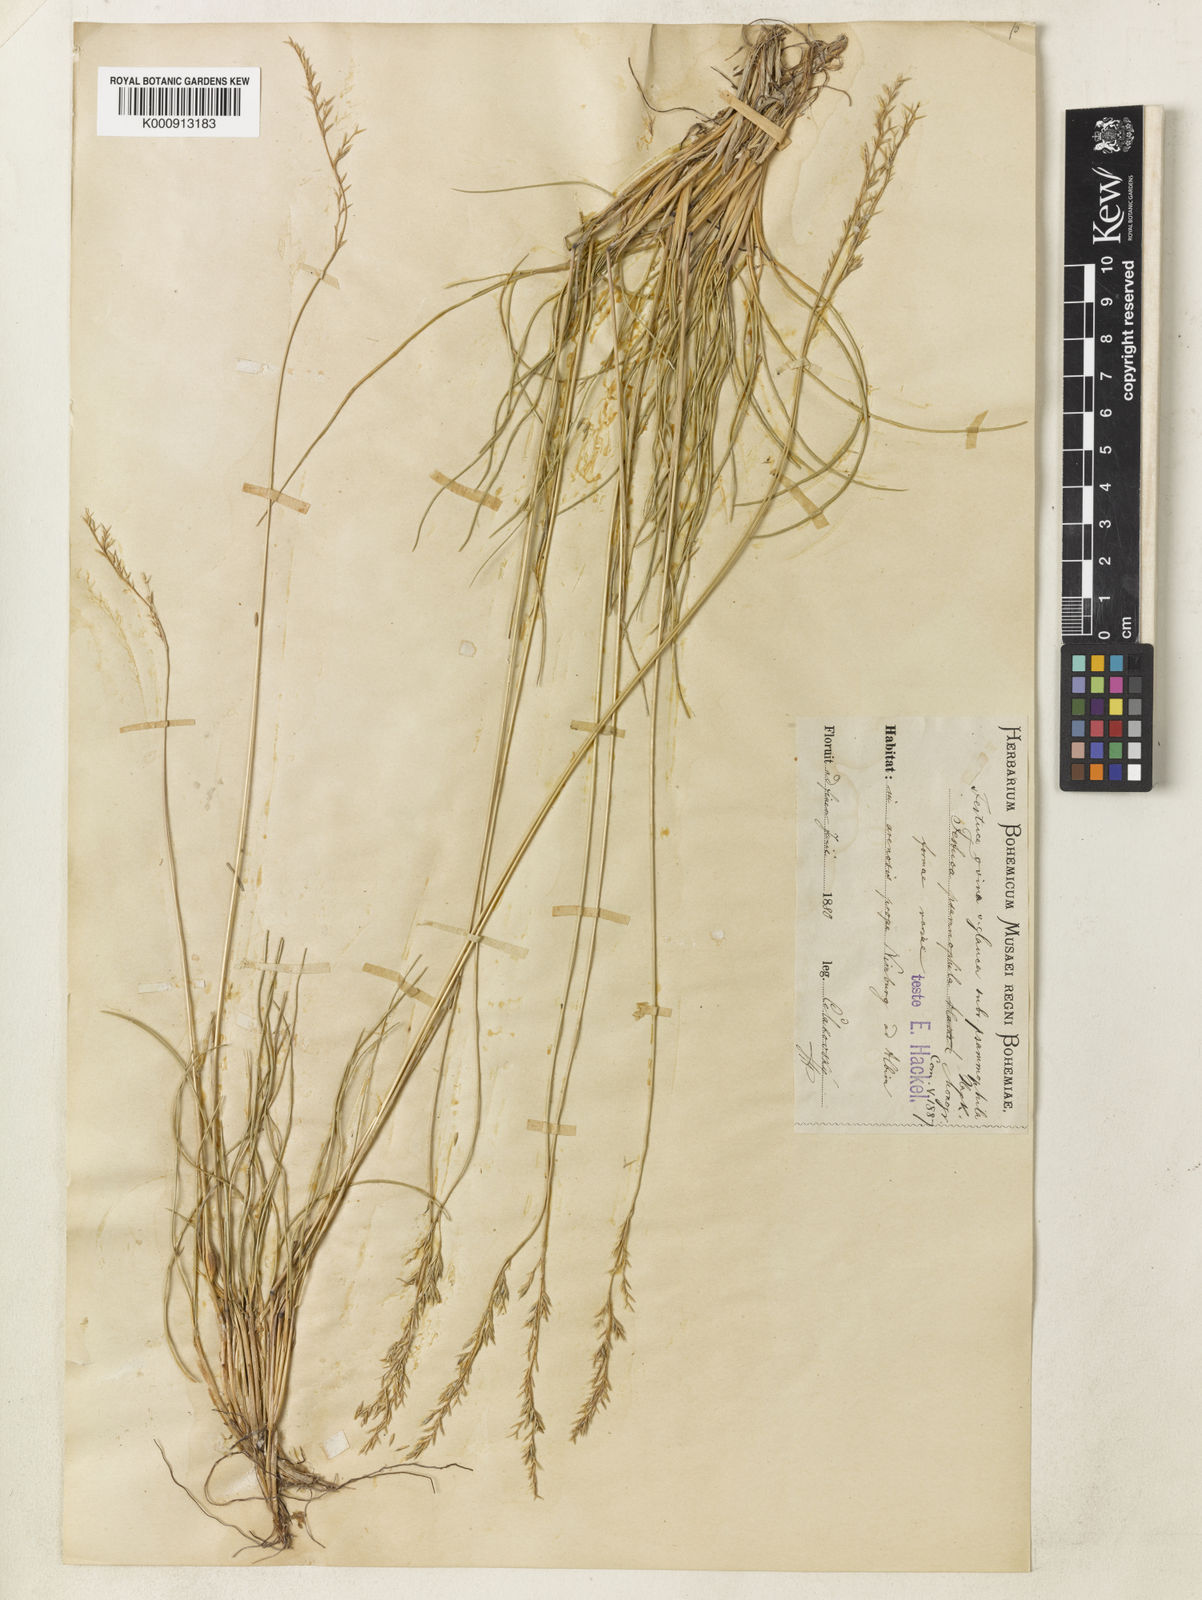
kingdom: Plantae
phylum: Tracheophyta
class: Liliopsida
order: Poales
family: Poaceae
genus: Festuca
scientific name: Festuca psammophila
